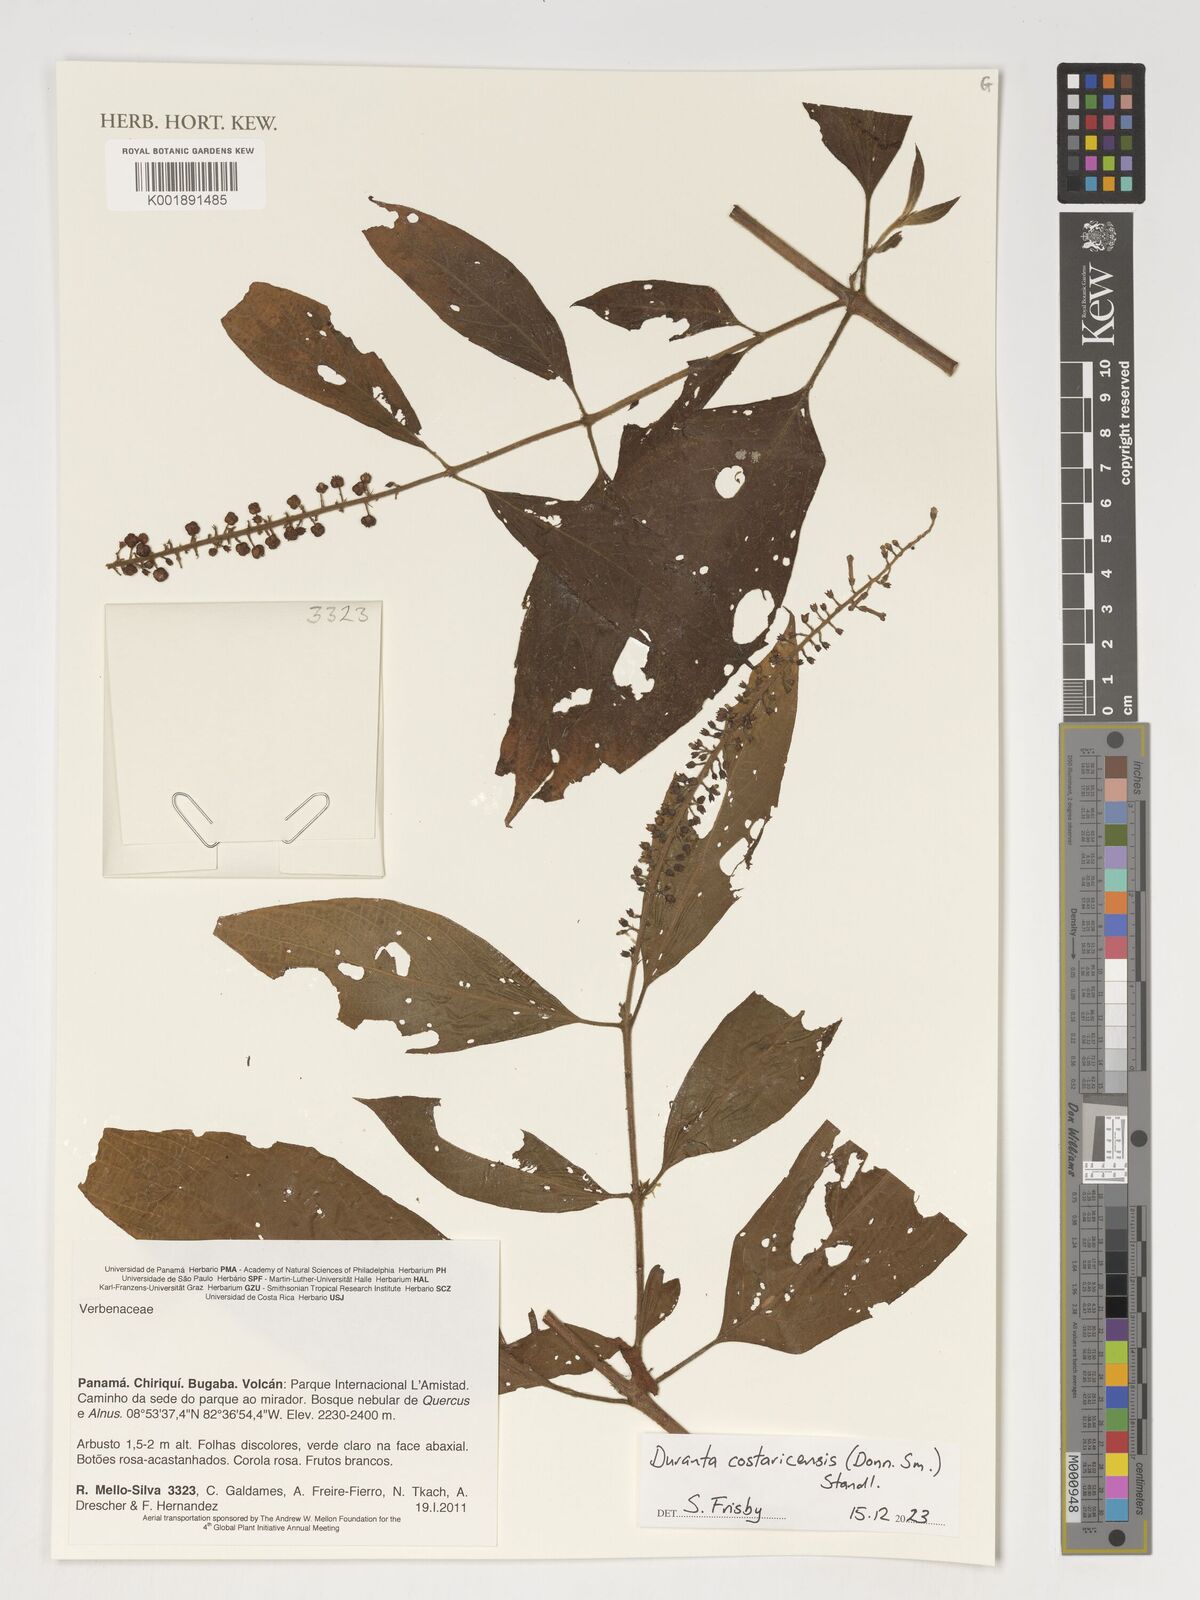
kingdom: Plantae
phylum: Tracheophyta
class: Magnoliopsida
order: Lamiales
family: Verbenaceae
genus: Duranta
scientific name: Duranta costaricensis
